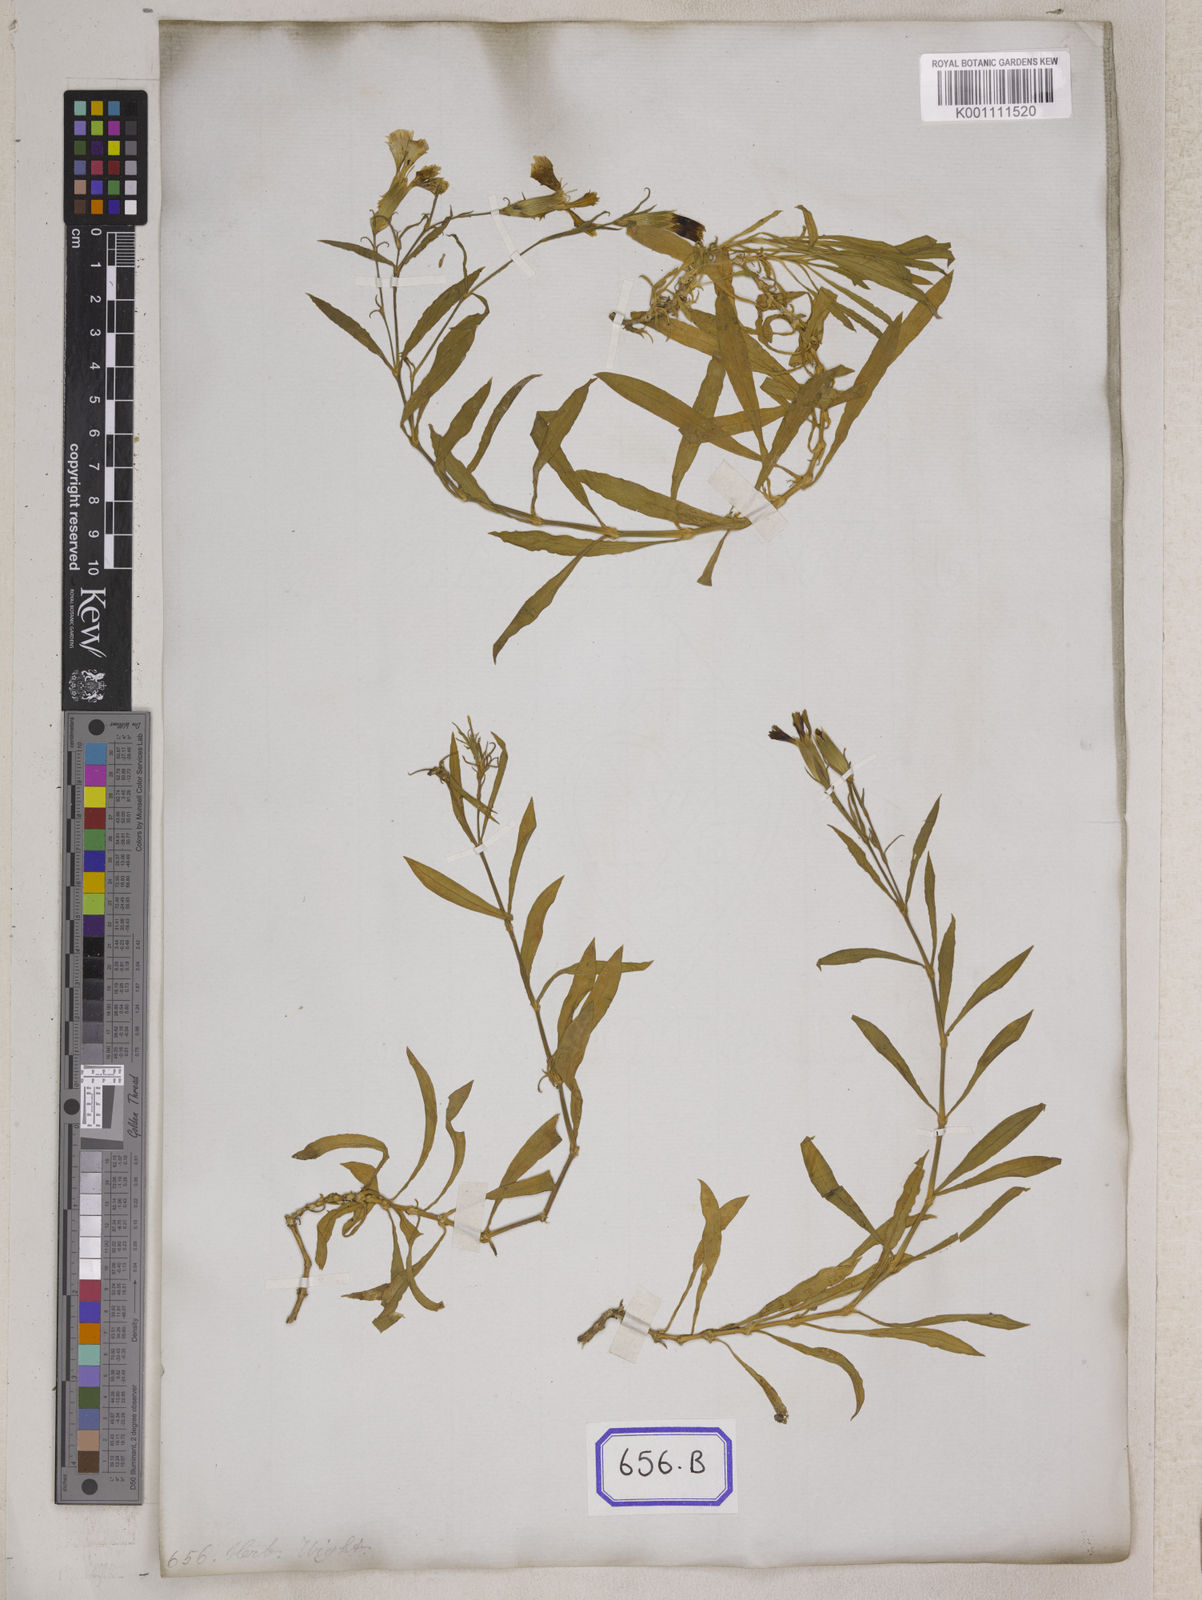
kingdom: Plantae
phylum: Tracheophyta
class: Magnoliopsida
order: Caryophyllales
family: Caryophyllaceae
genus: Dianthus
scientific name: Dianthus chinensis
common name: Rainbow pink
